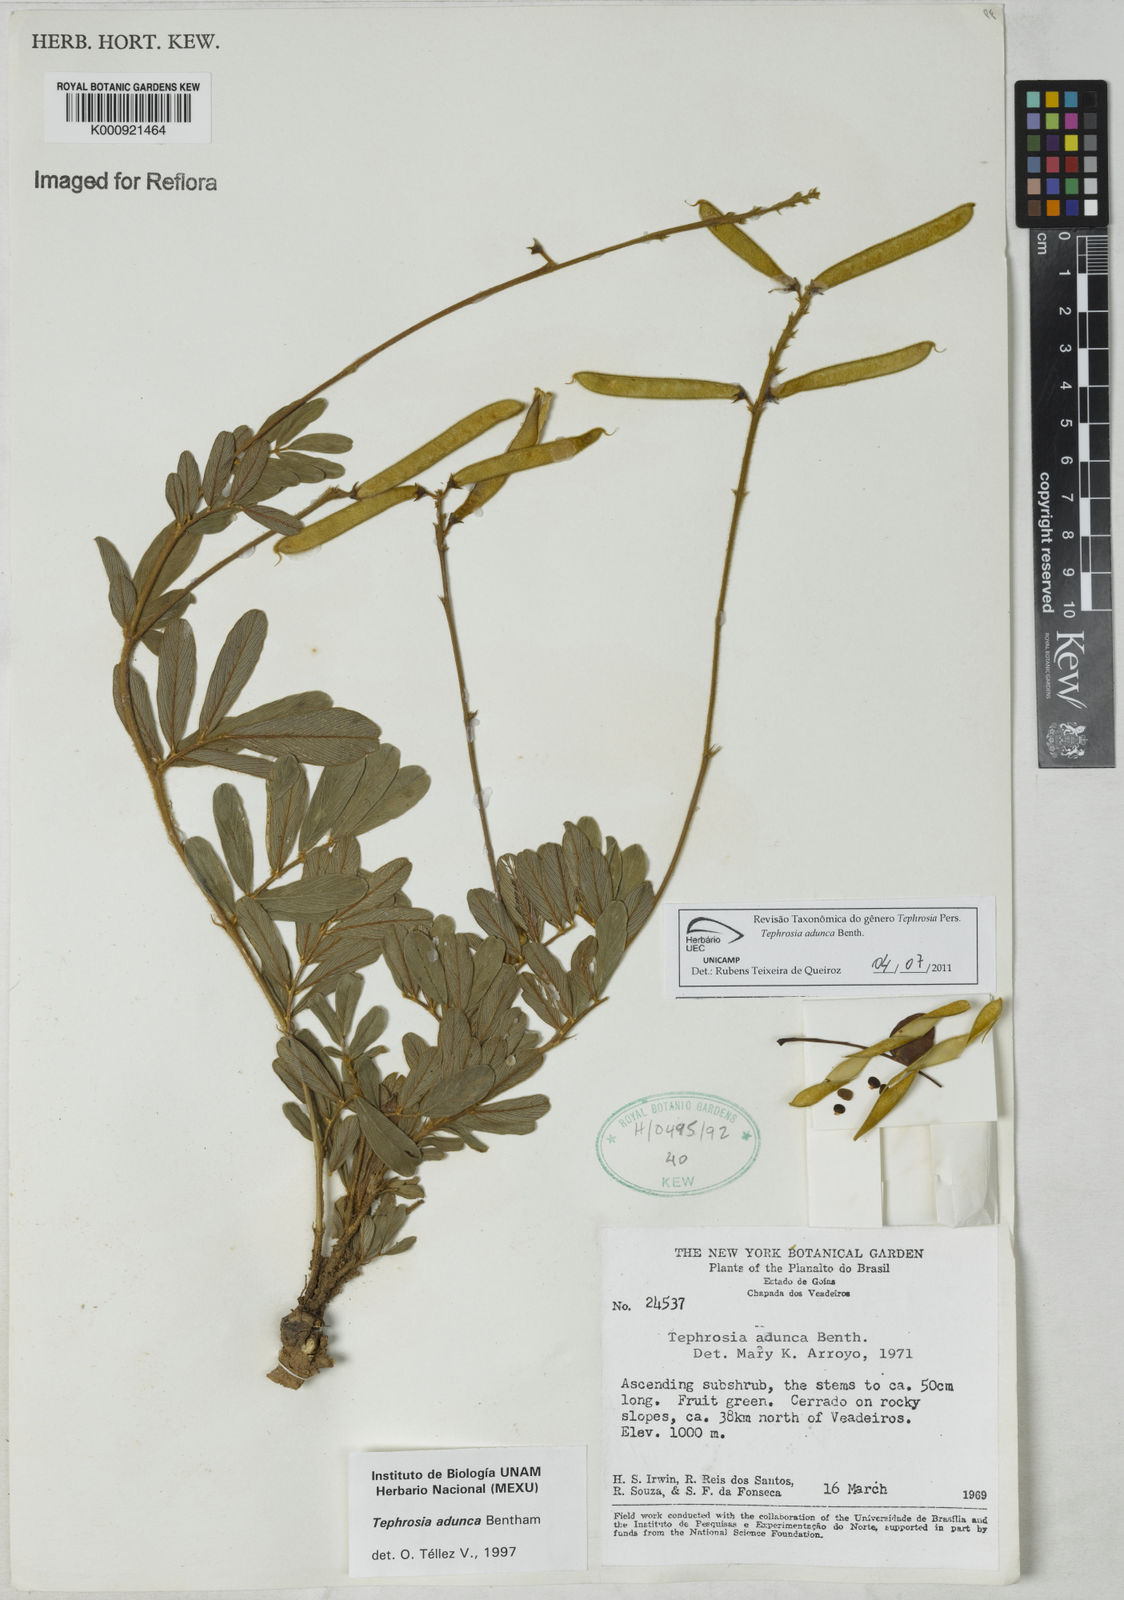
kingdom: Plantae
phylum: Tracheophyta
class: Magnoliopsida
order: Fabales
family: Fabaceae
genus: Tephrosia
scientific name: Tephrosia adunca
